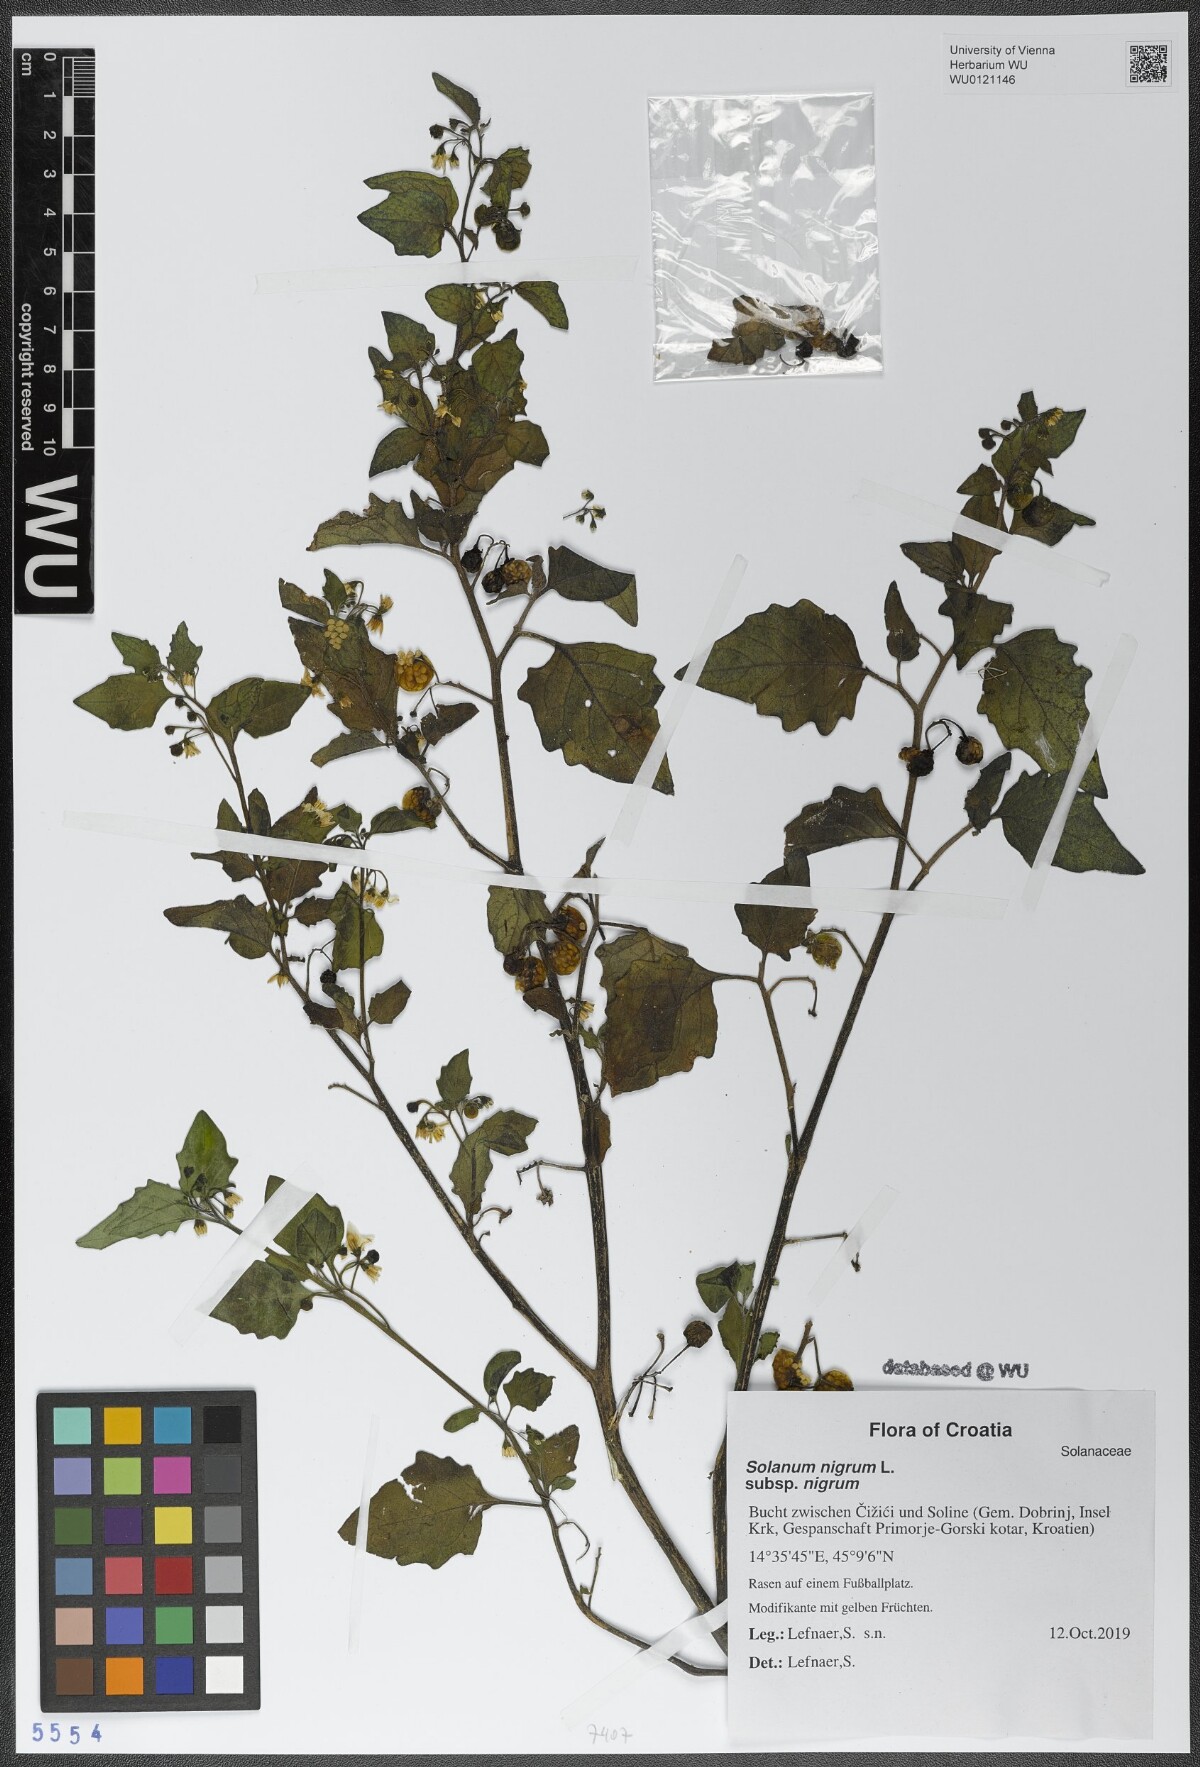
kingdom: Plantae
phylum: Tracheophyta
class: Magnoliopsida
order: Solanales
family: Solanaceae
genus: Solanum
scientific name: Solanum nigrum
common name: Black nightshade
